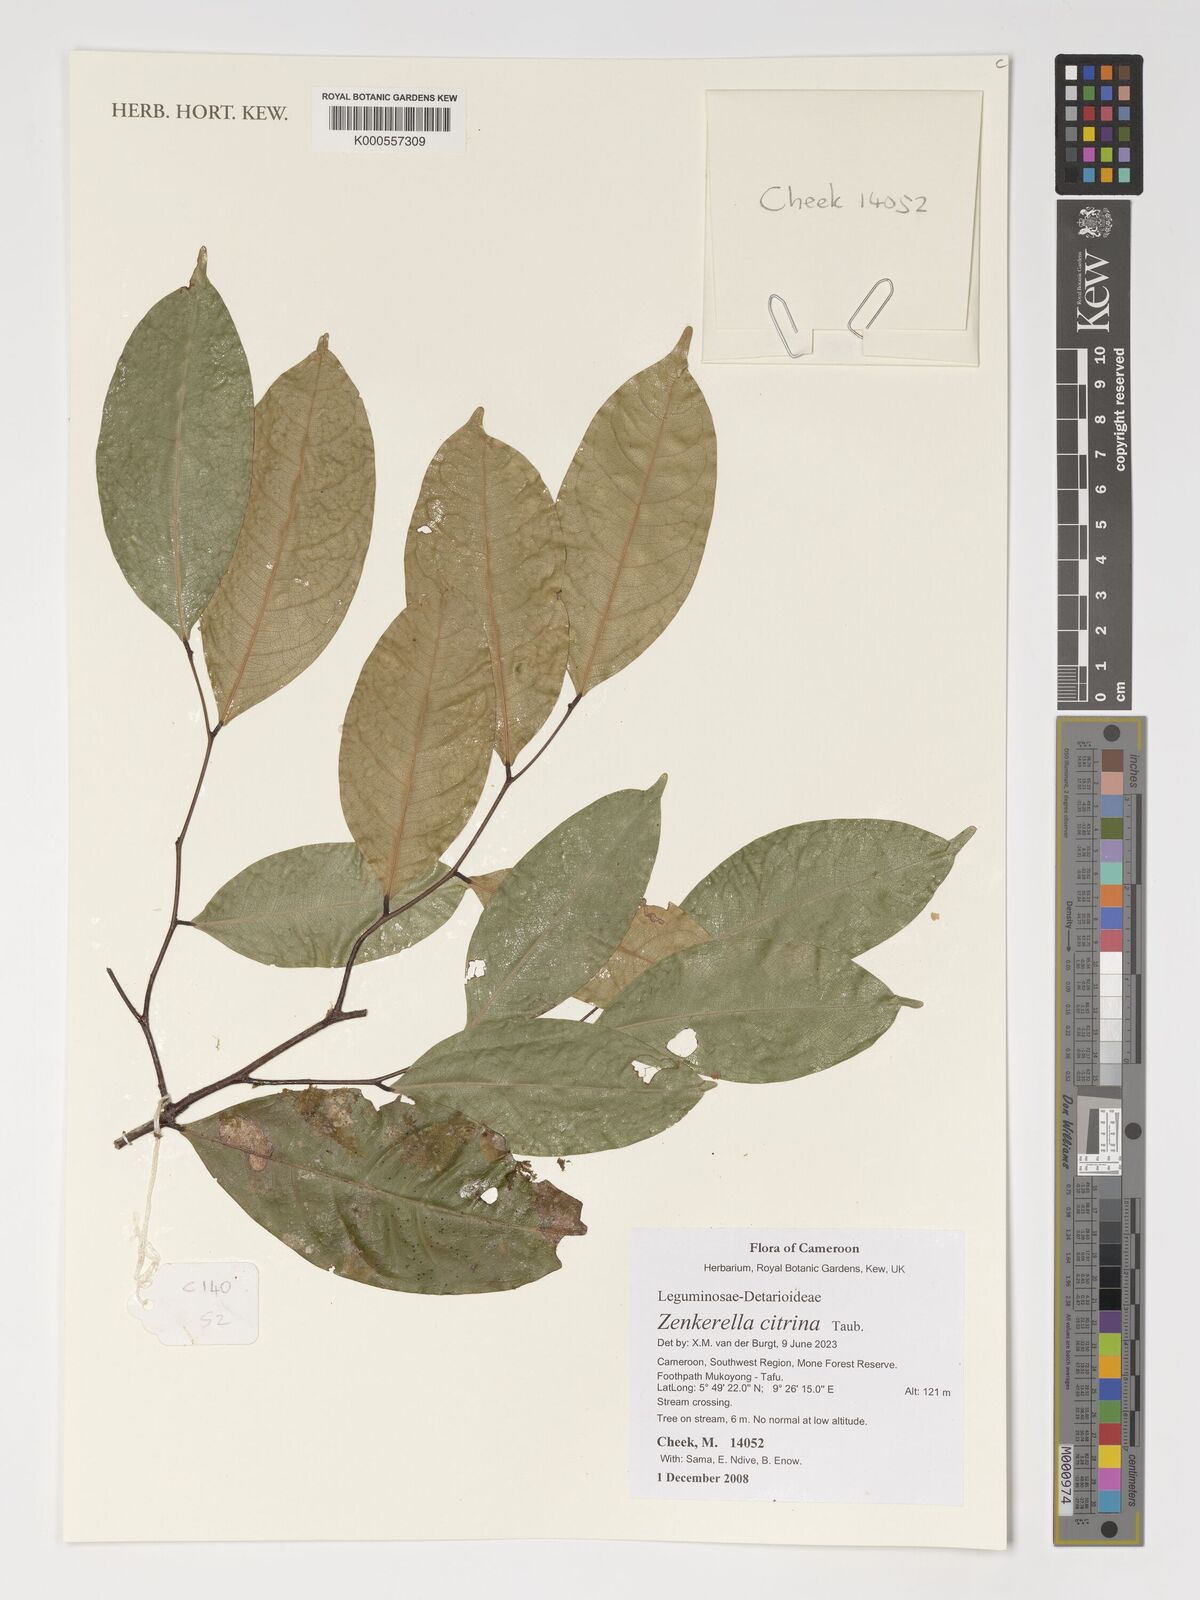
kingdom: Plantae
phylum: Tracheophyta
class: Magnoliopsida
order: Fabales
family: Fabaceae
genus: Zenkerella
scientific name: Zenkerella citrina
